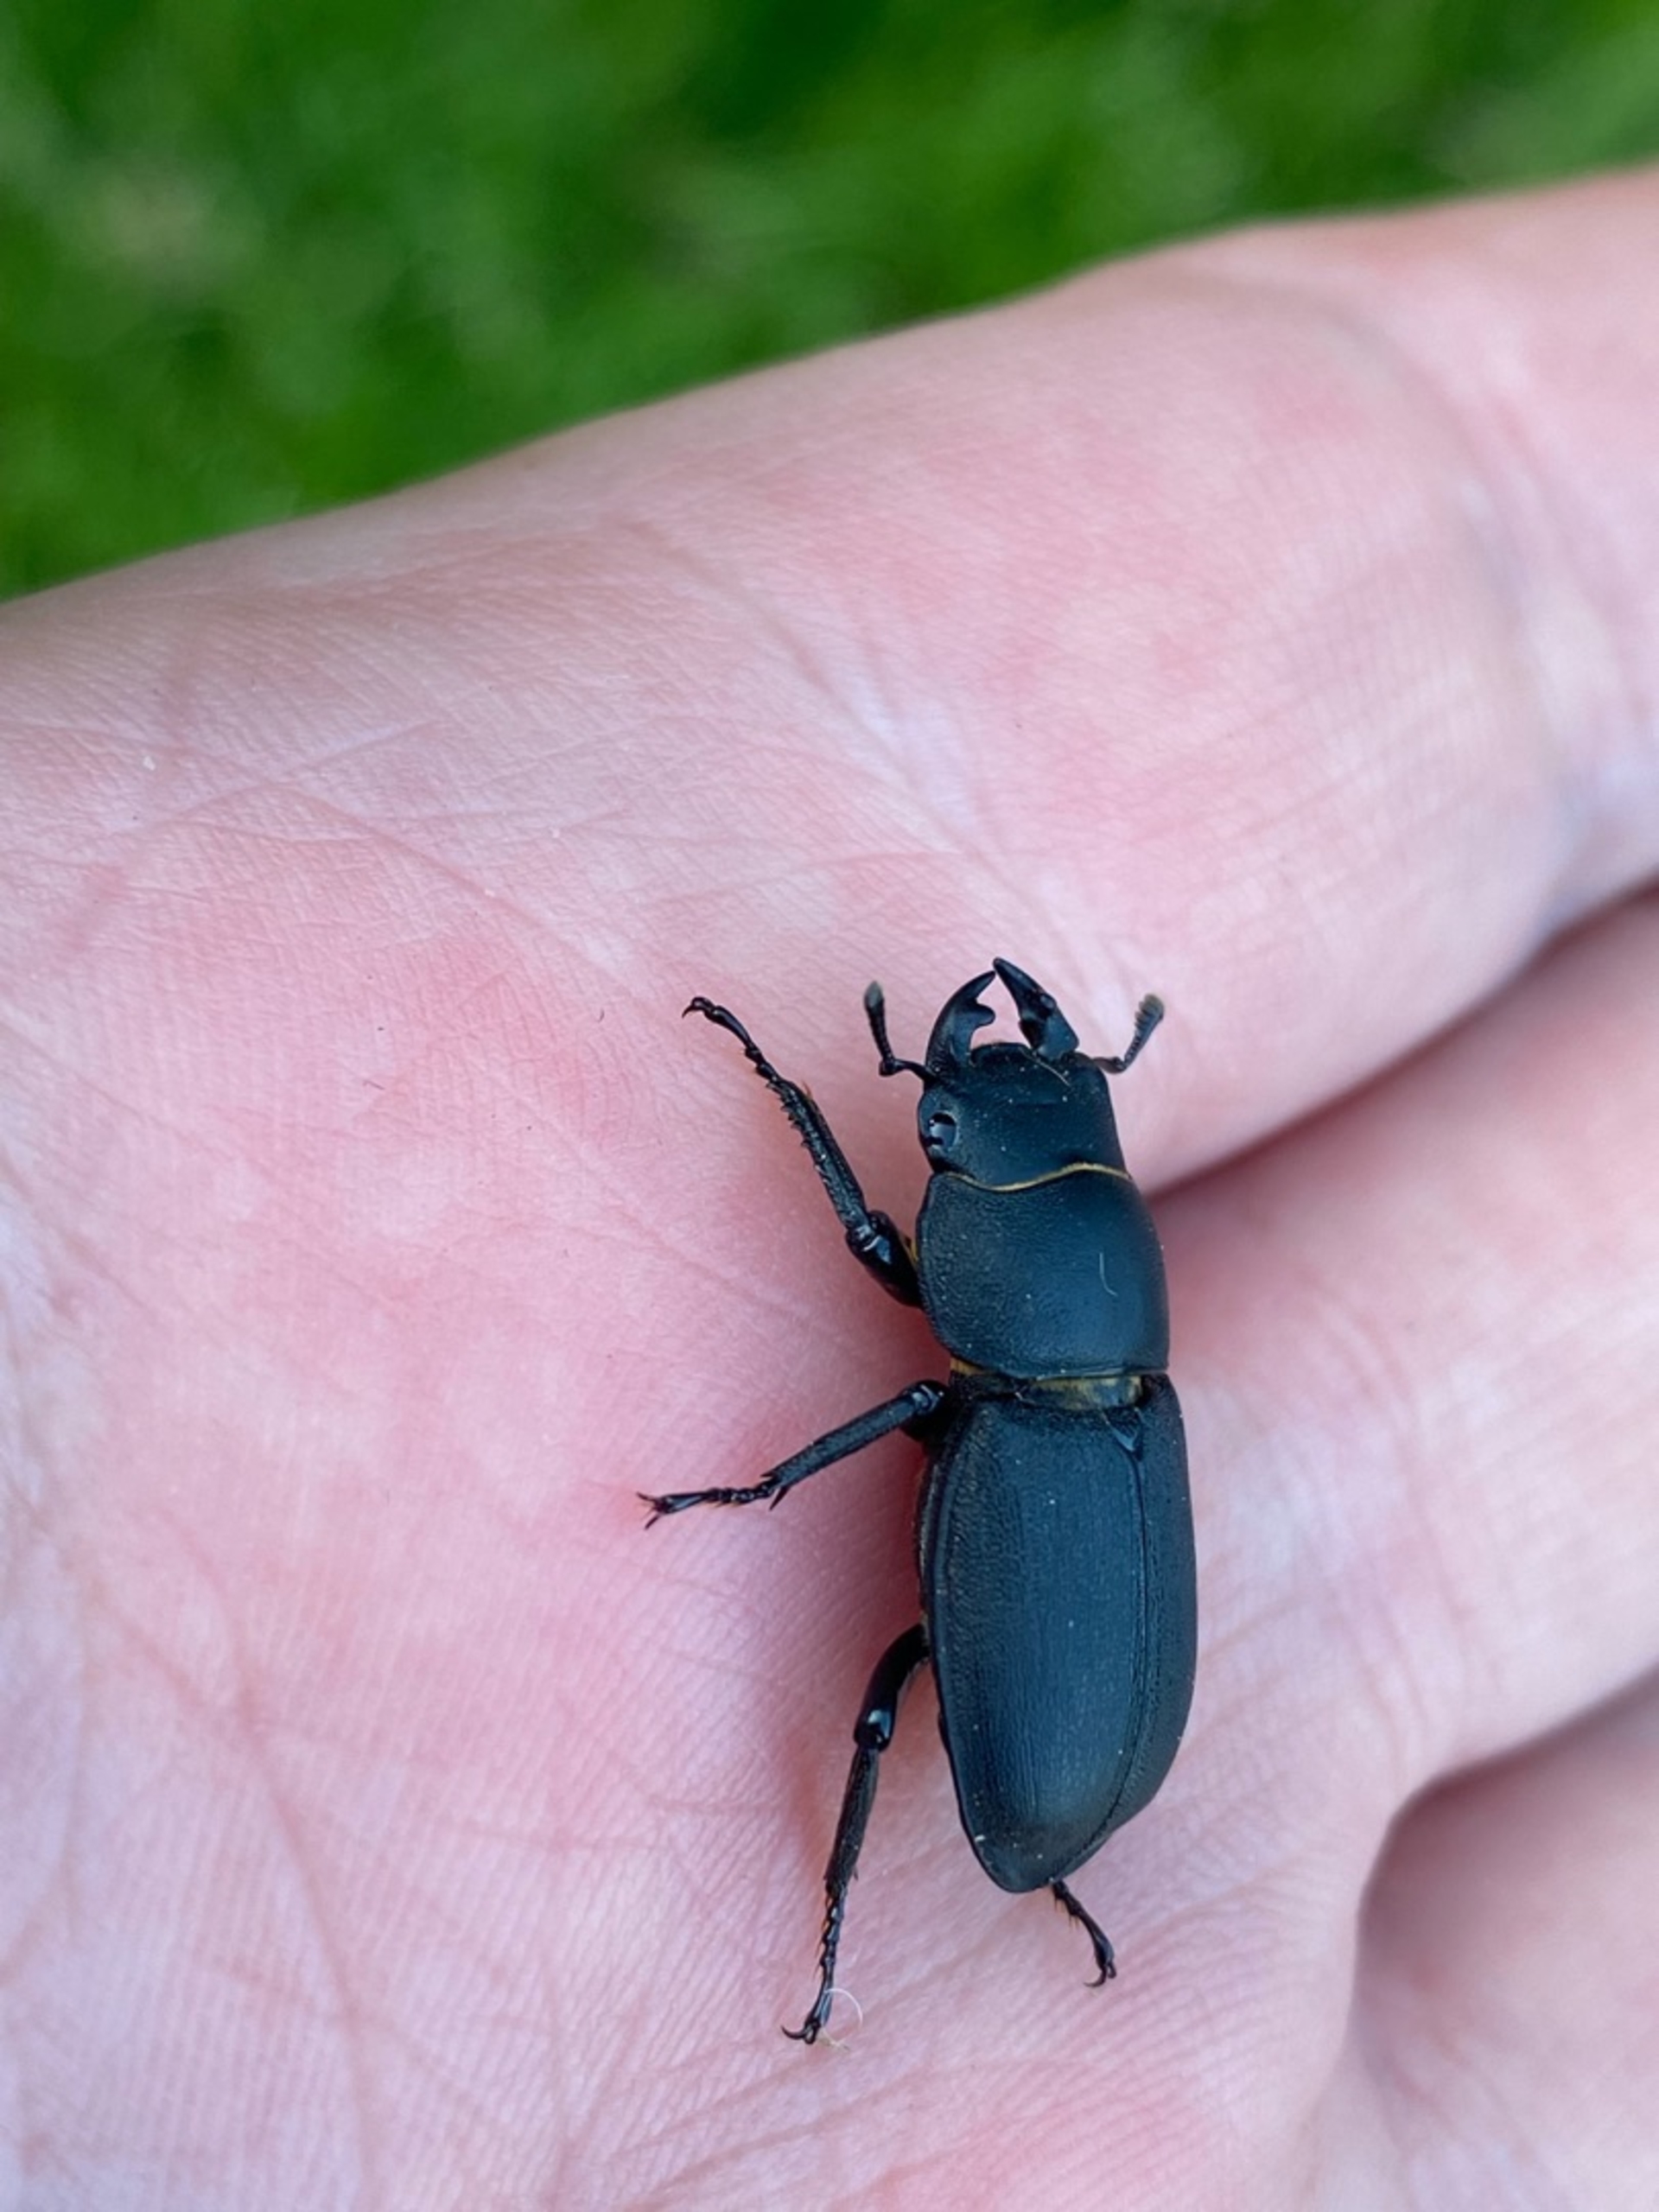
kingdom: Animalia
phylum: Arthropoda
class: Insecta
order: Coleoptera
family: Lucanidae
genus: Dorcus
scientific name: Dorcus parallelipipedus
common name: Bøghjort
